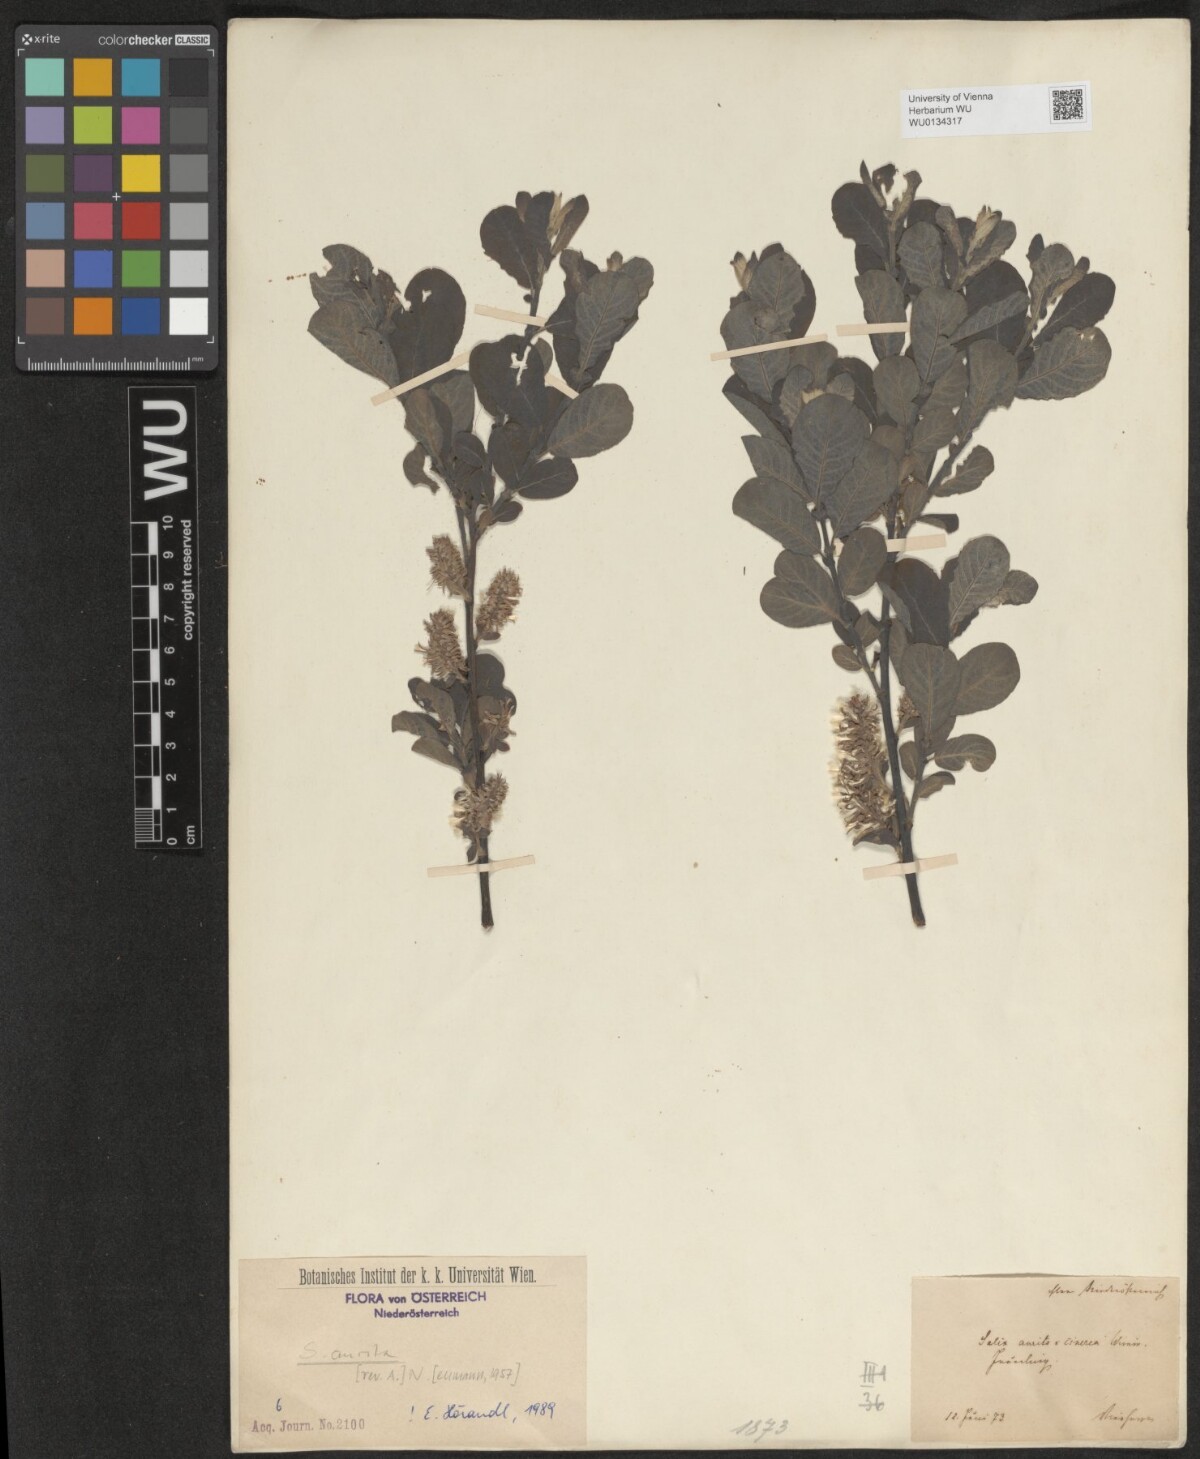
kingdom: Plantae
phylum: Tracheophyta
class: Magnoliopsida
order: Malpighiales
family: Salicaceae
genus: Salix
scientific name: Salix aurita
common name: Eared willow
